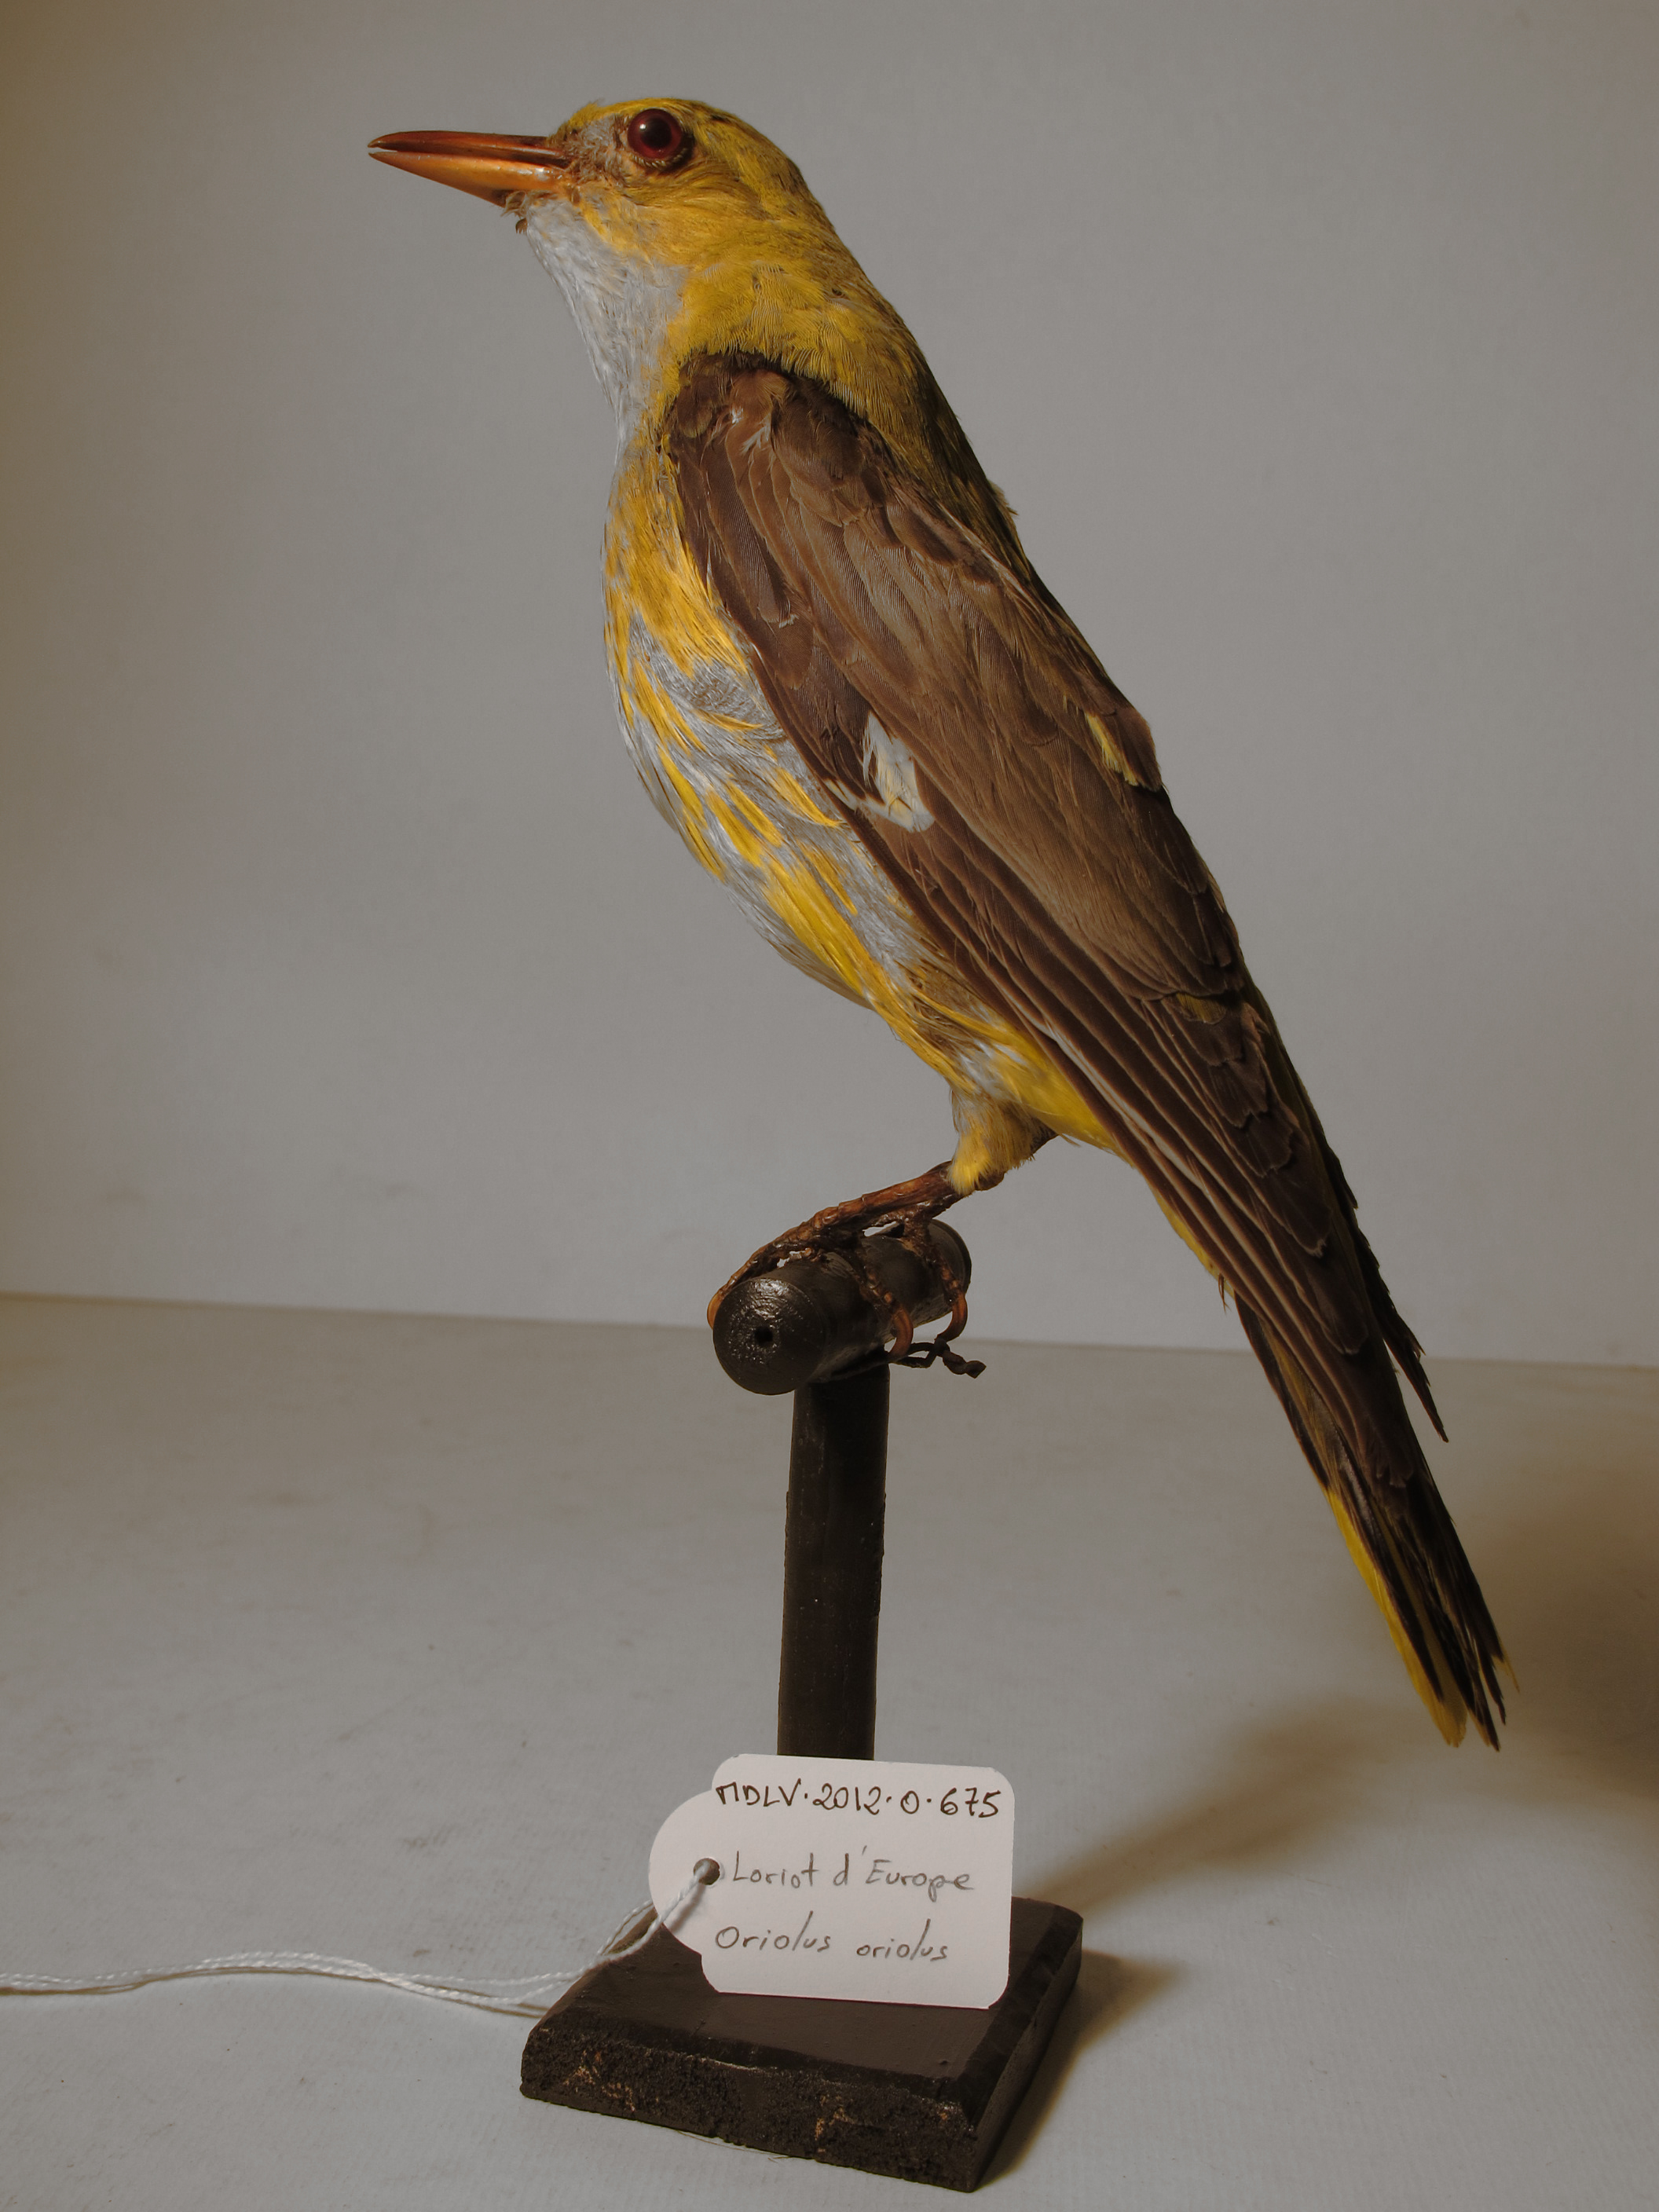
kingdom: Animalia
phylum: Chordata
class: Aves
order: Passeriformes
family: Oriolidae
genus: Oriolus
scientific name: Oriolus oriolus
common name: Eurasian Golden Oriole
